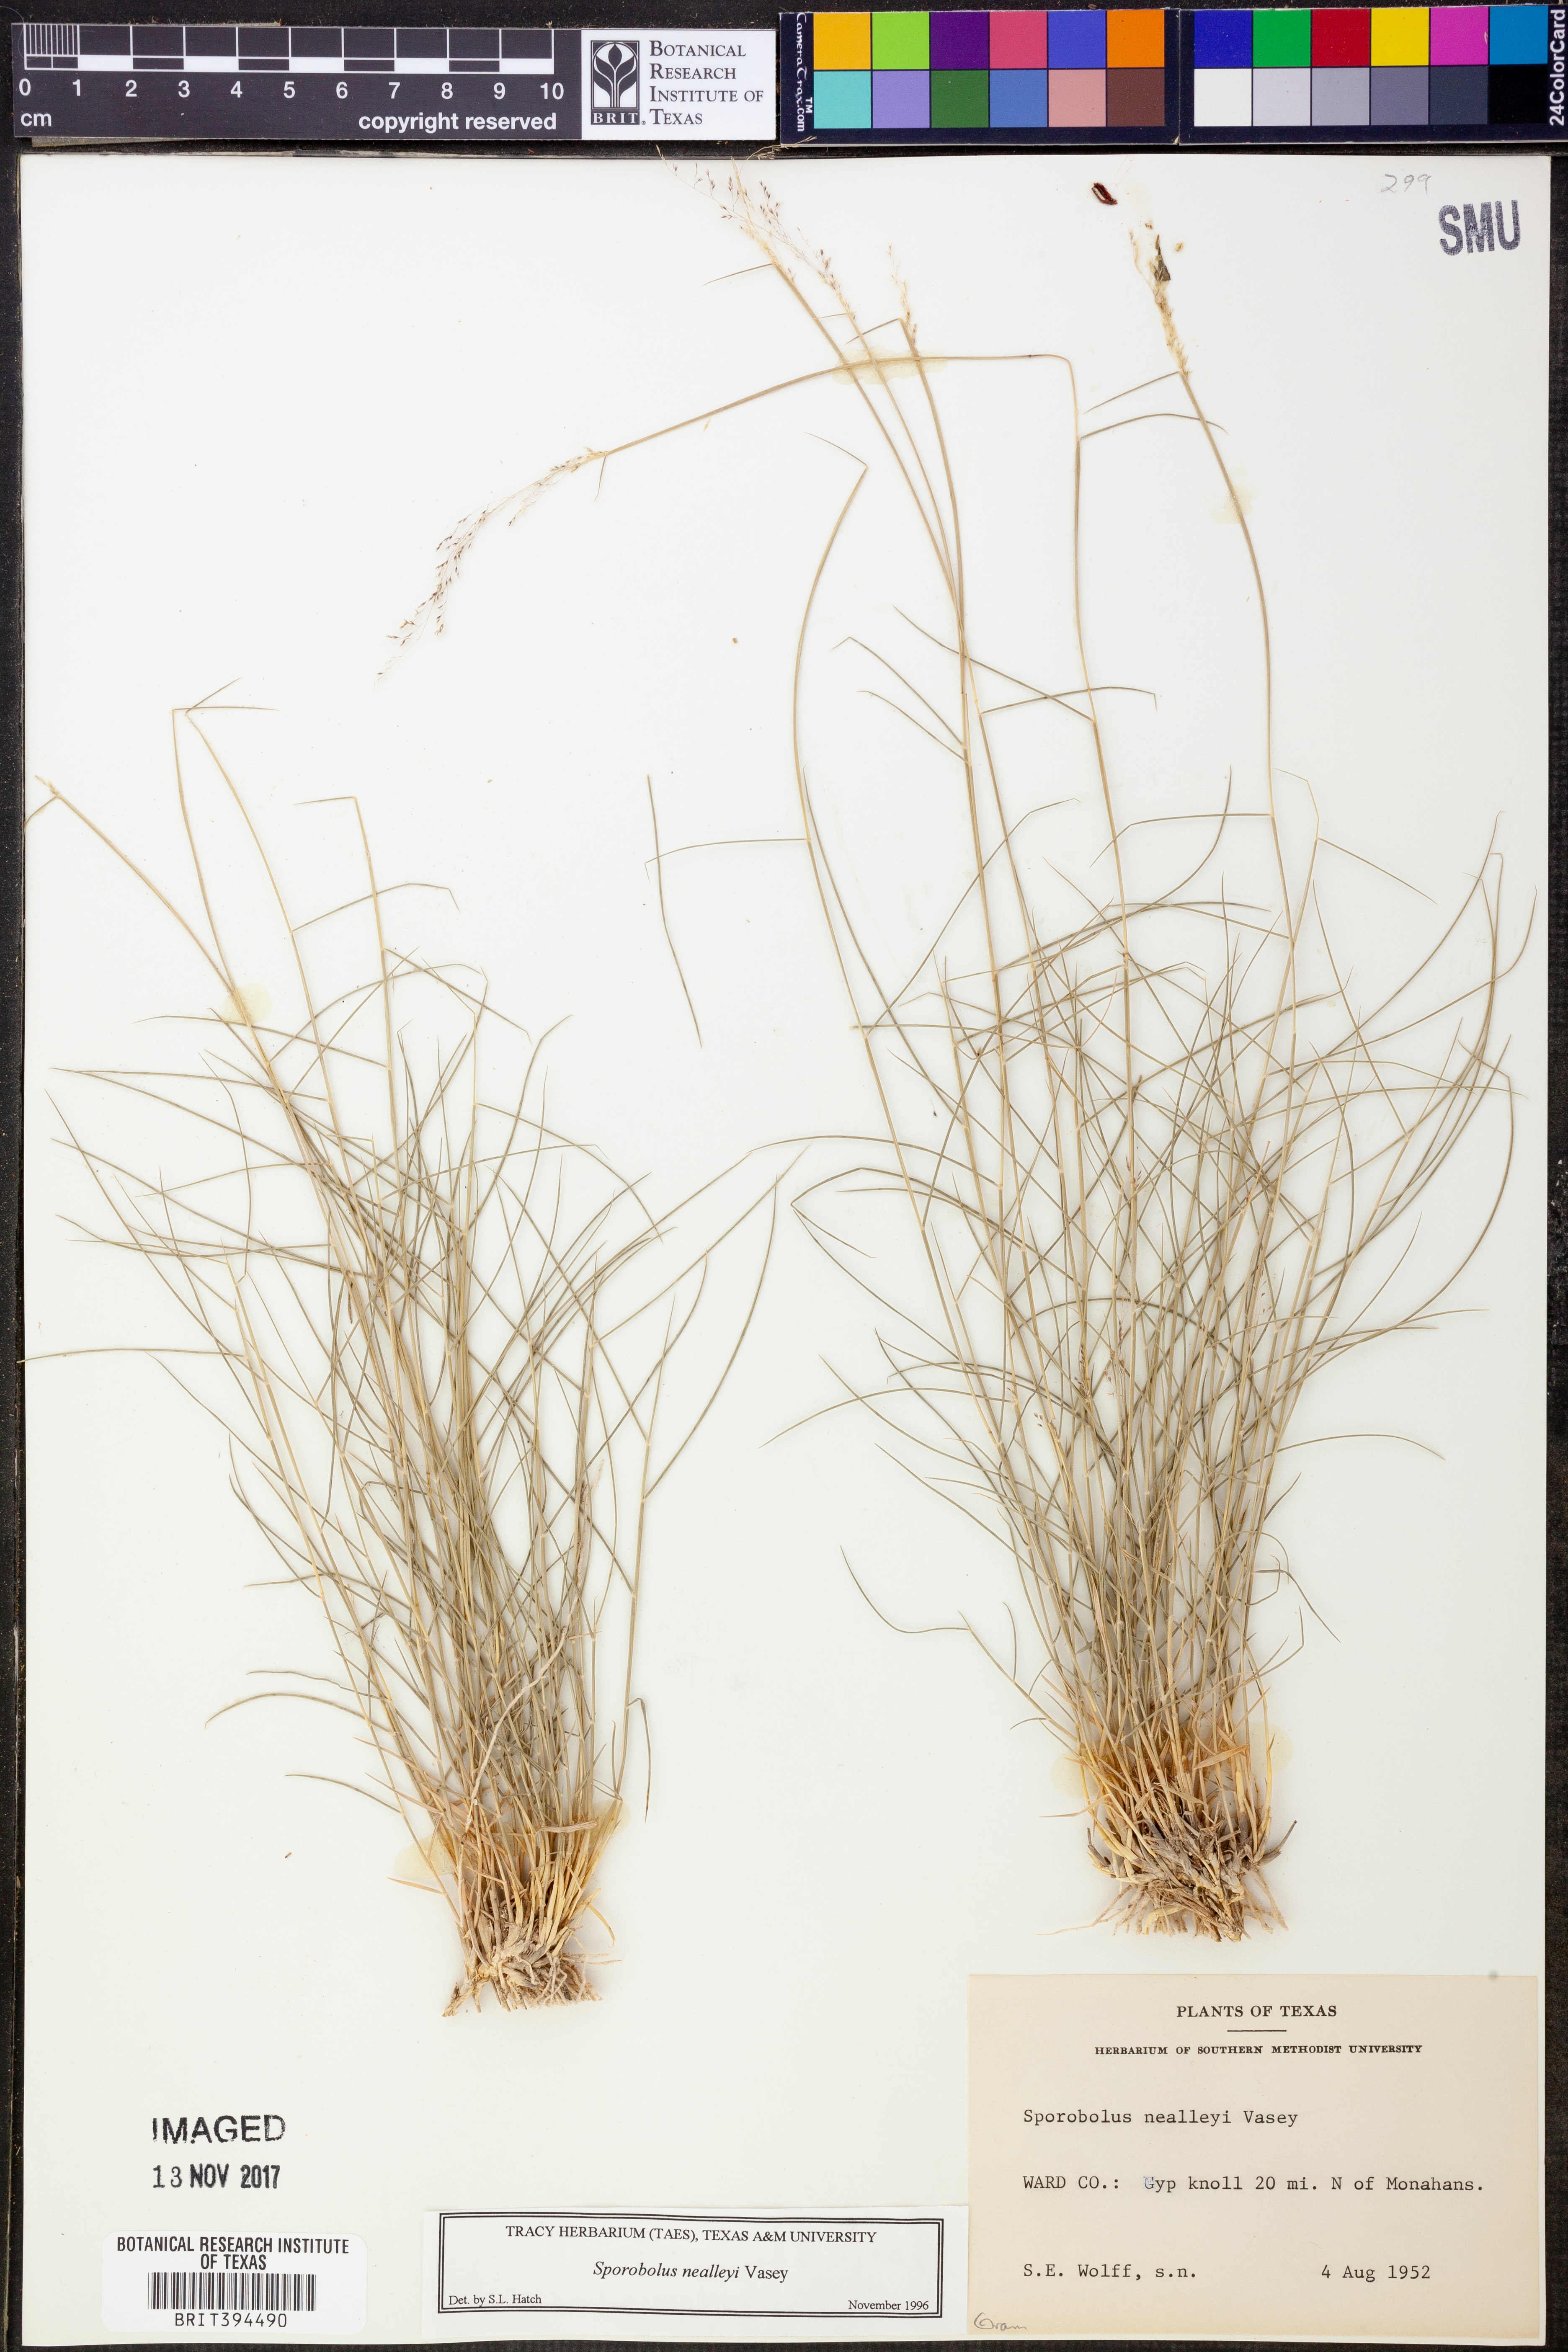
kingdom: Plantae
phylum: Tracheophyta
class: Liliopsida
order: Poales
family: Poaceae
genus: Sporobolus
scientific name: Sporobolus nealleyi
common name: Gyp grass
